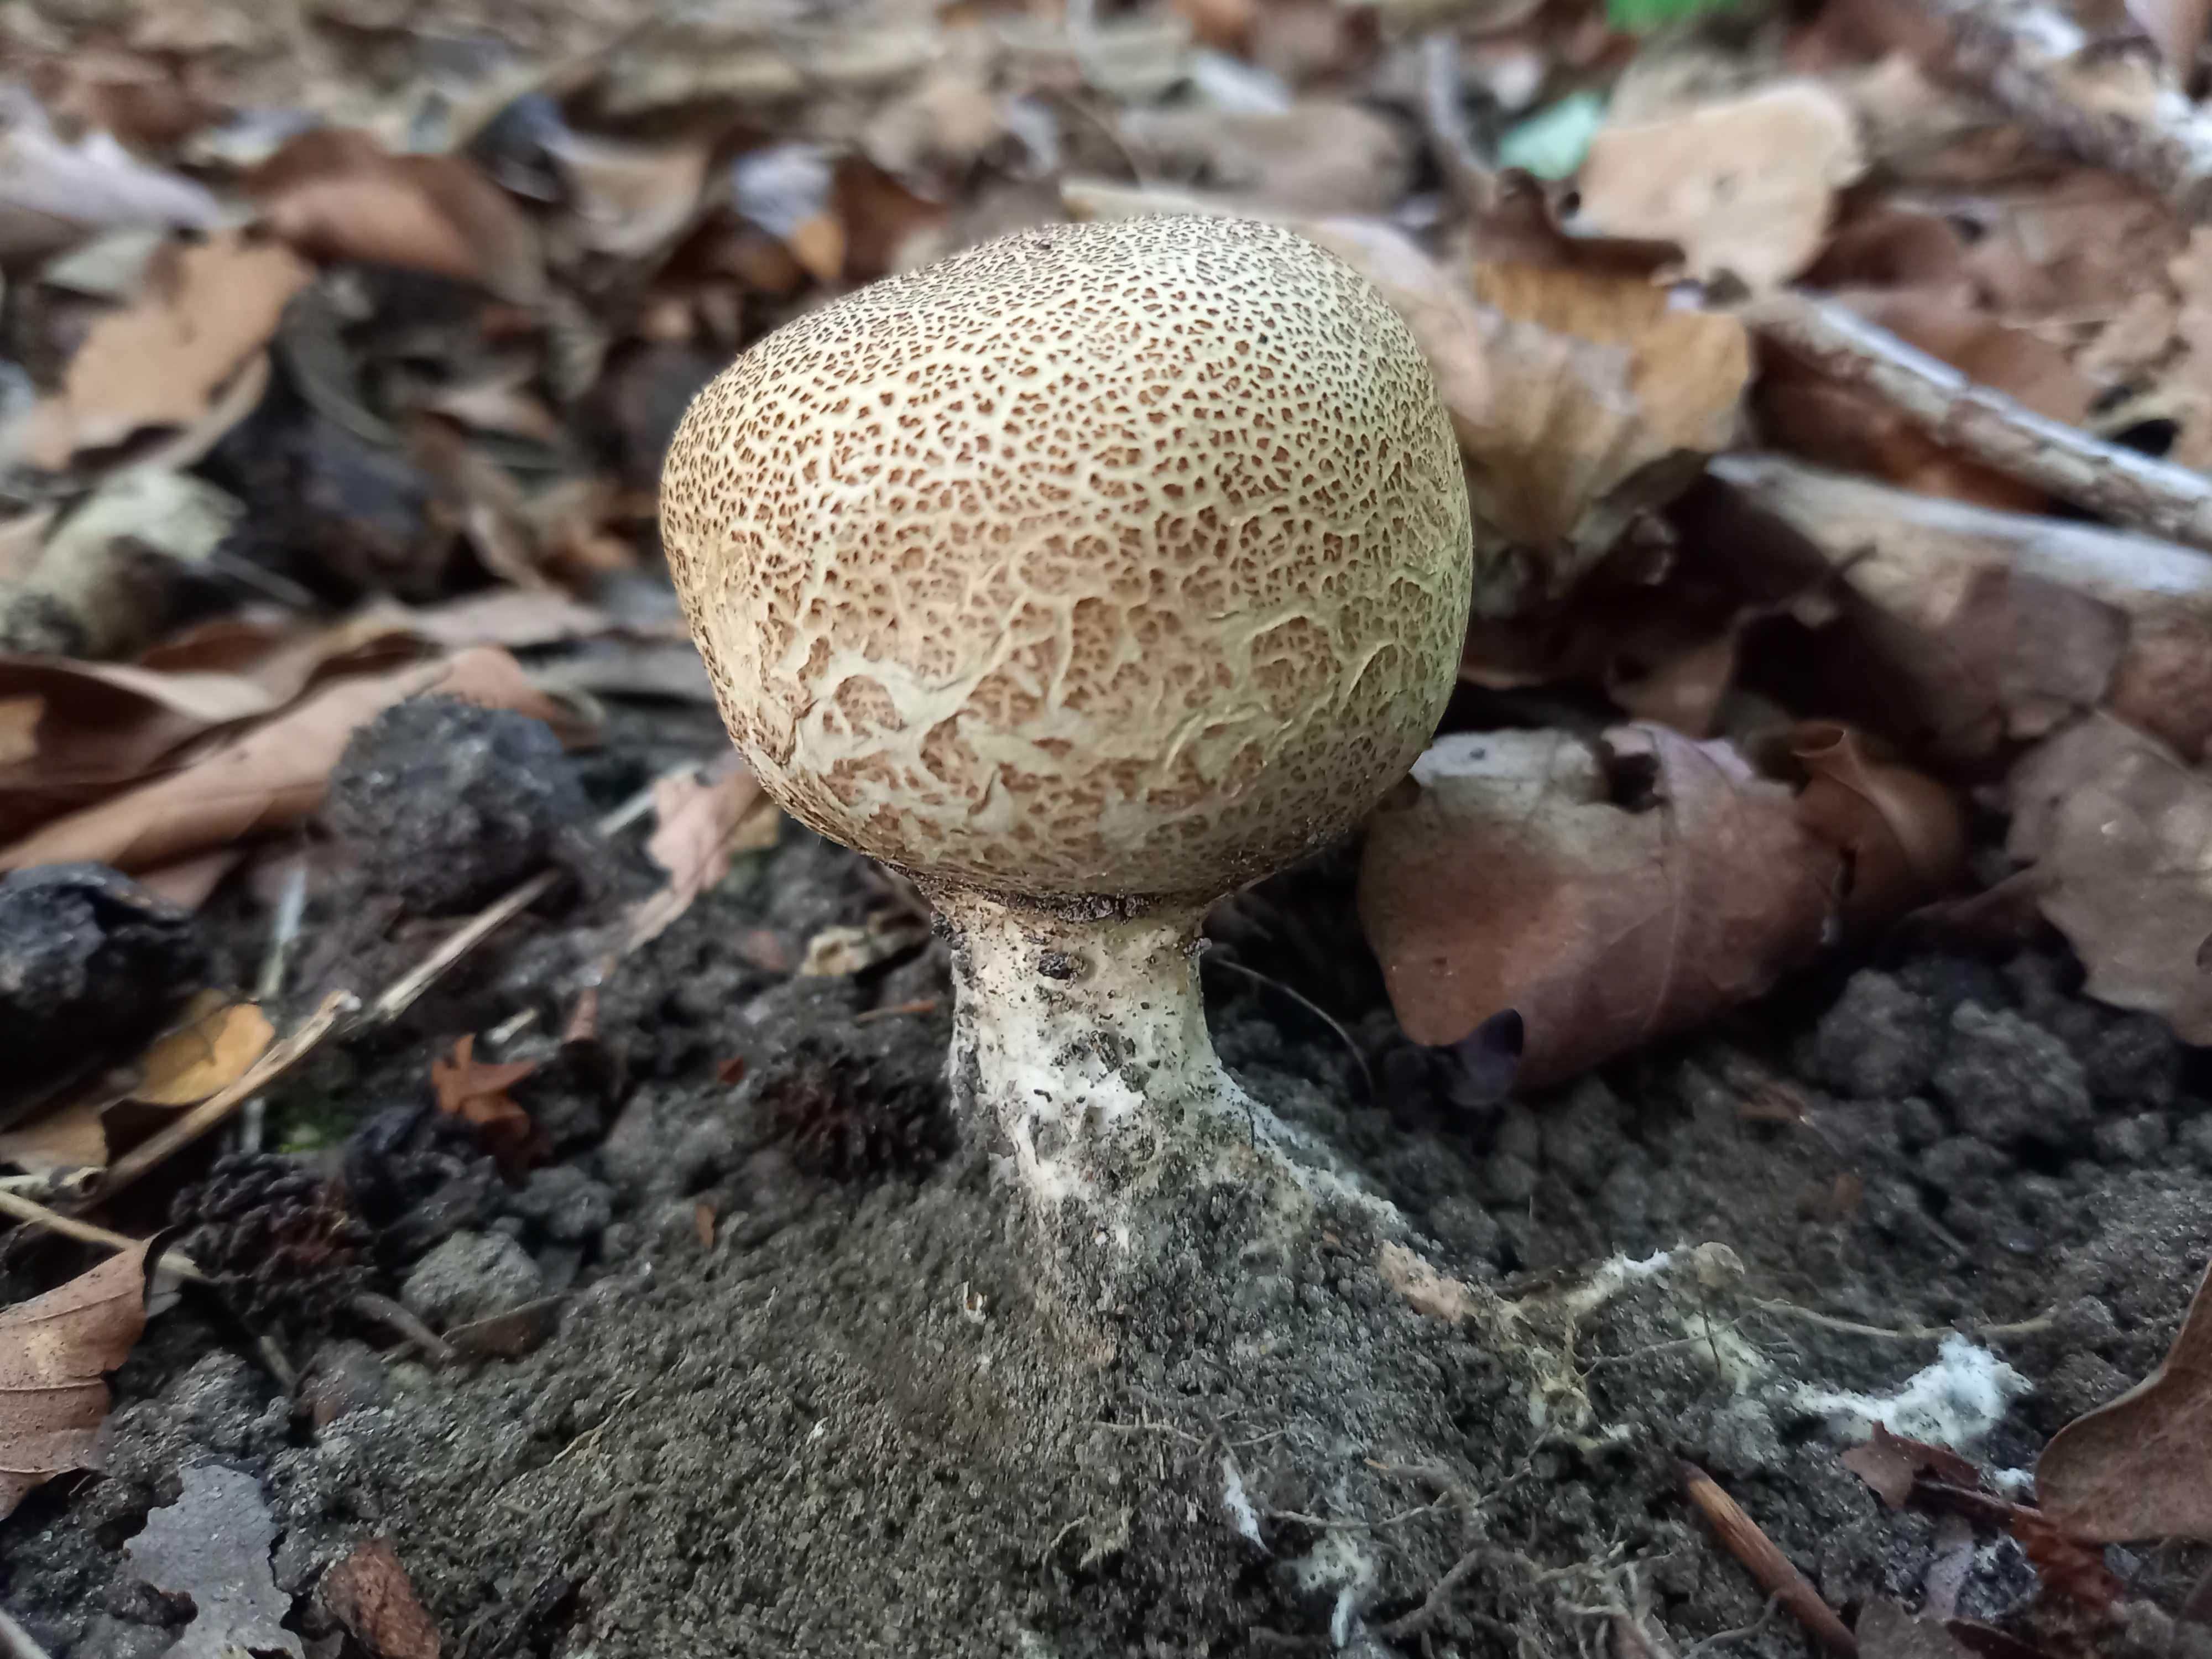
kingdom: Fungi
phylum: Basidiomycota
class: Agaricomycetes
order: Boletales
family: Sclerodermataceae
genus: Scleroderma
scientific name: Scleroderma verrucosum
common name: stilket bruskbold
